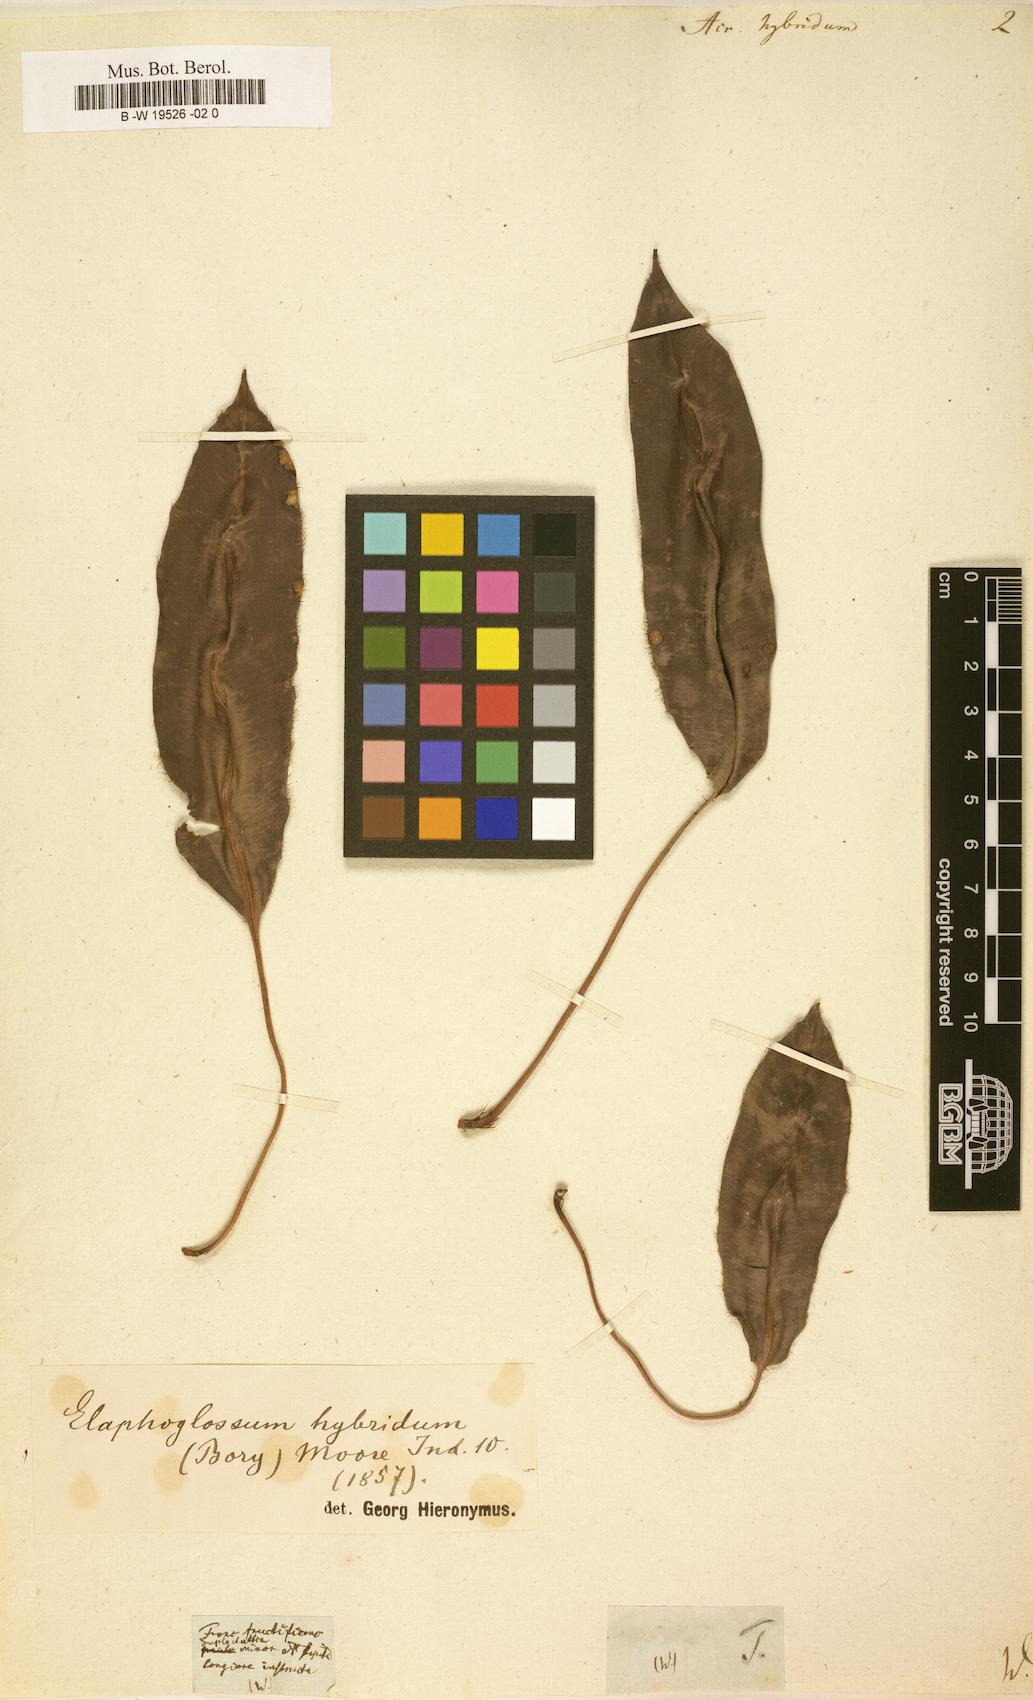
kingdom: Plantae
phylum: Tracheophyta
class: Polypodiopsida
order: Polypodiales
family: Dryopteridaceae
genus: Elaphoglossum
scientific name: Elaphoglossum hybridum
